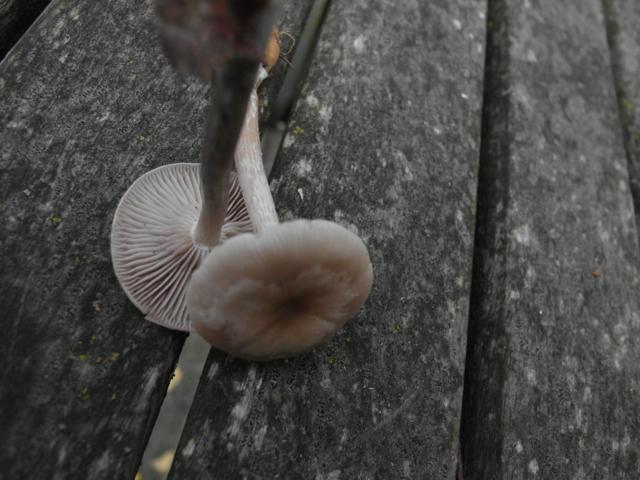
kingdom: Fungi
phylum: Basidiomycota
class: Agaricomycetes
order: Agaricales
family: Tricholomataceae
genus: Clitocybe
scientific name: Clitocybe metachroa
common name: grå tragthat
